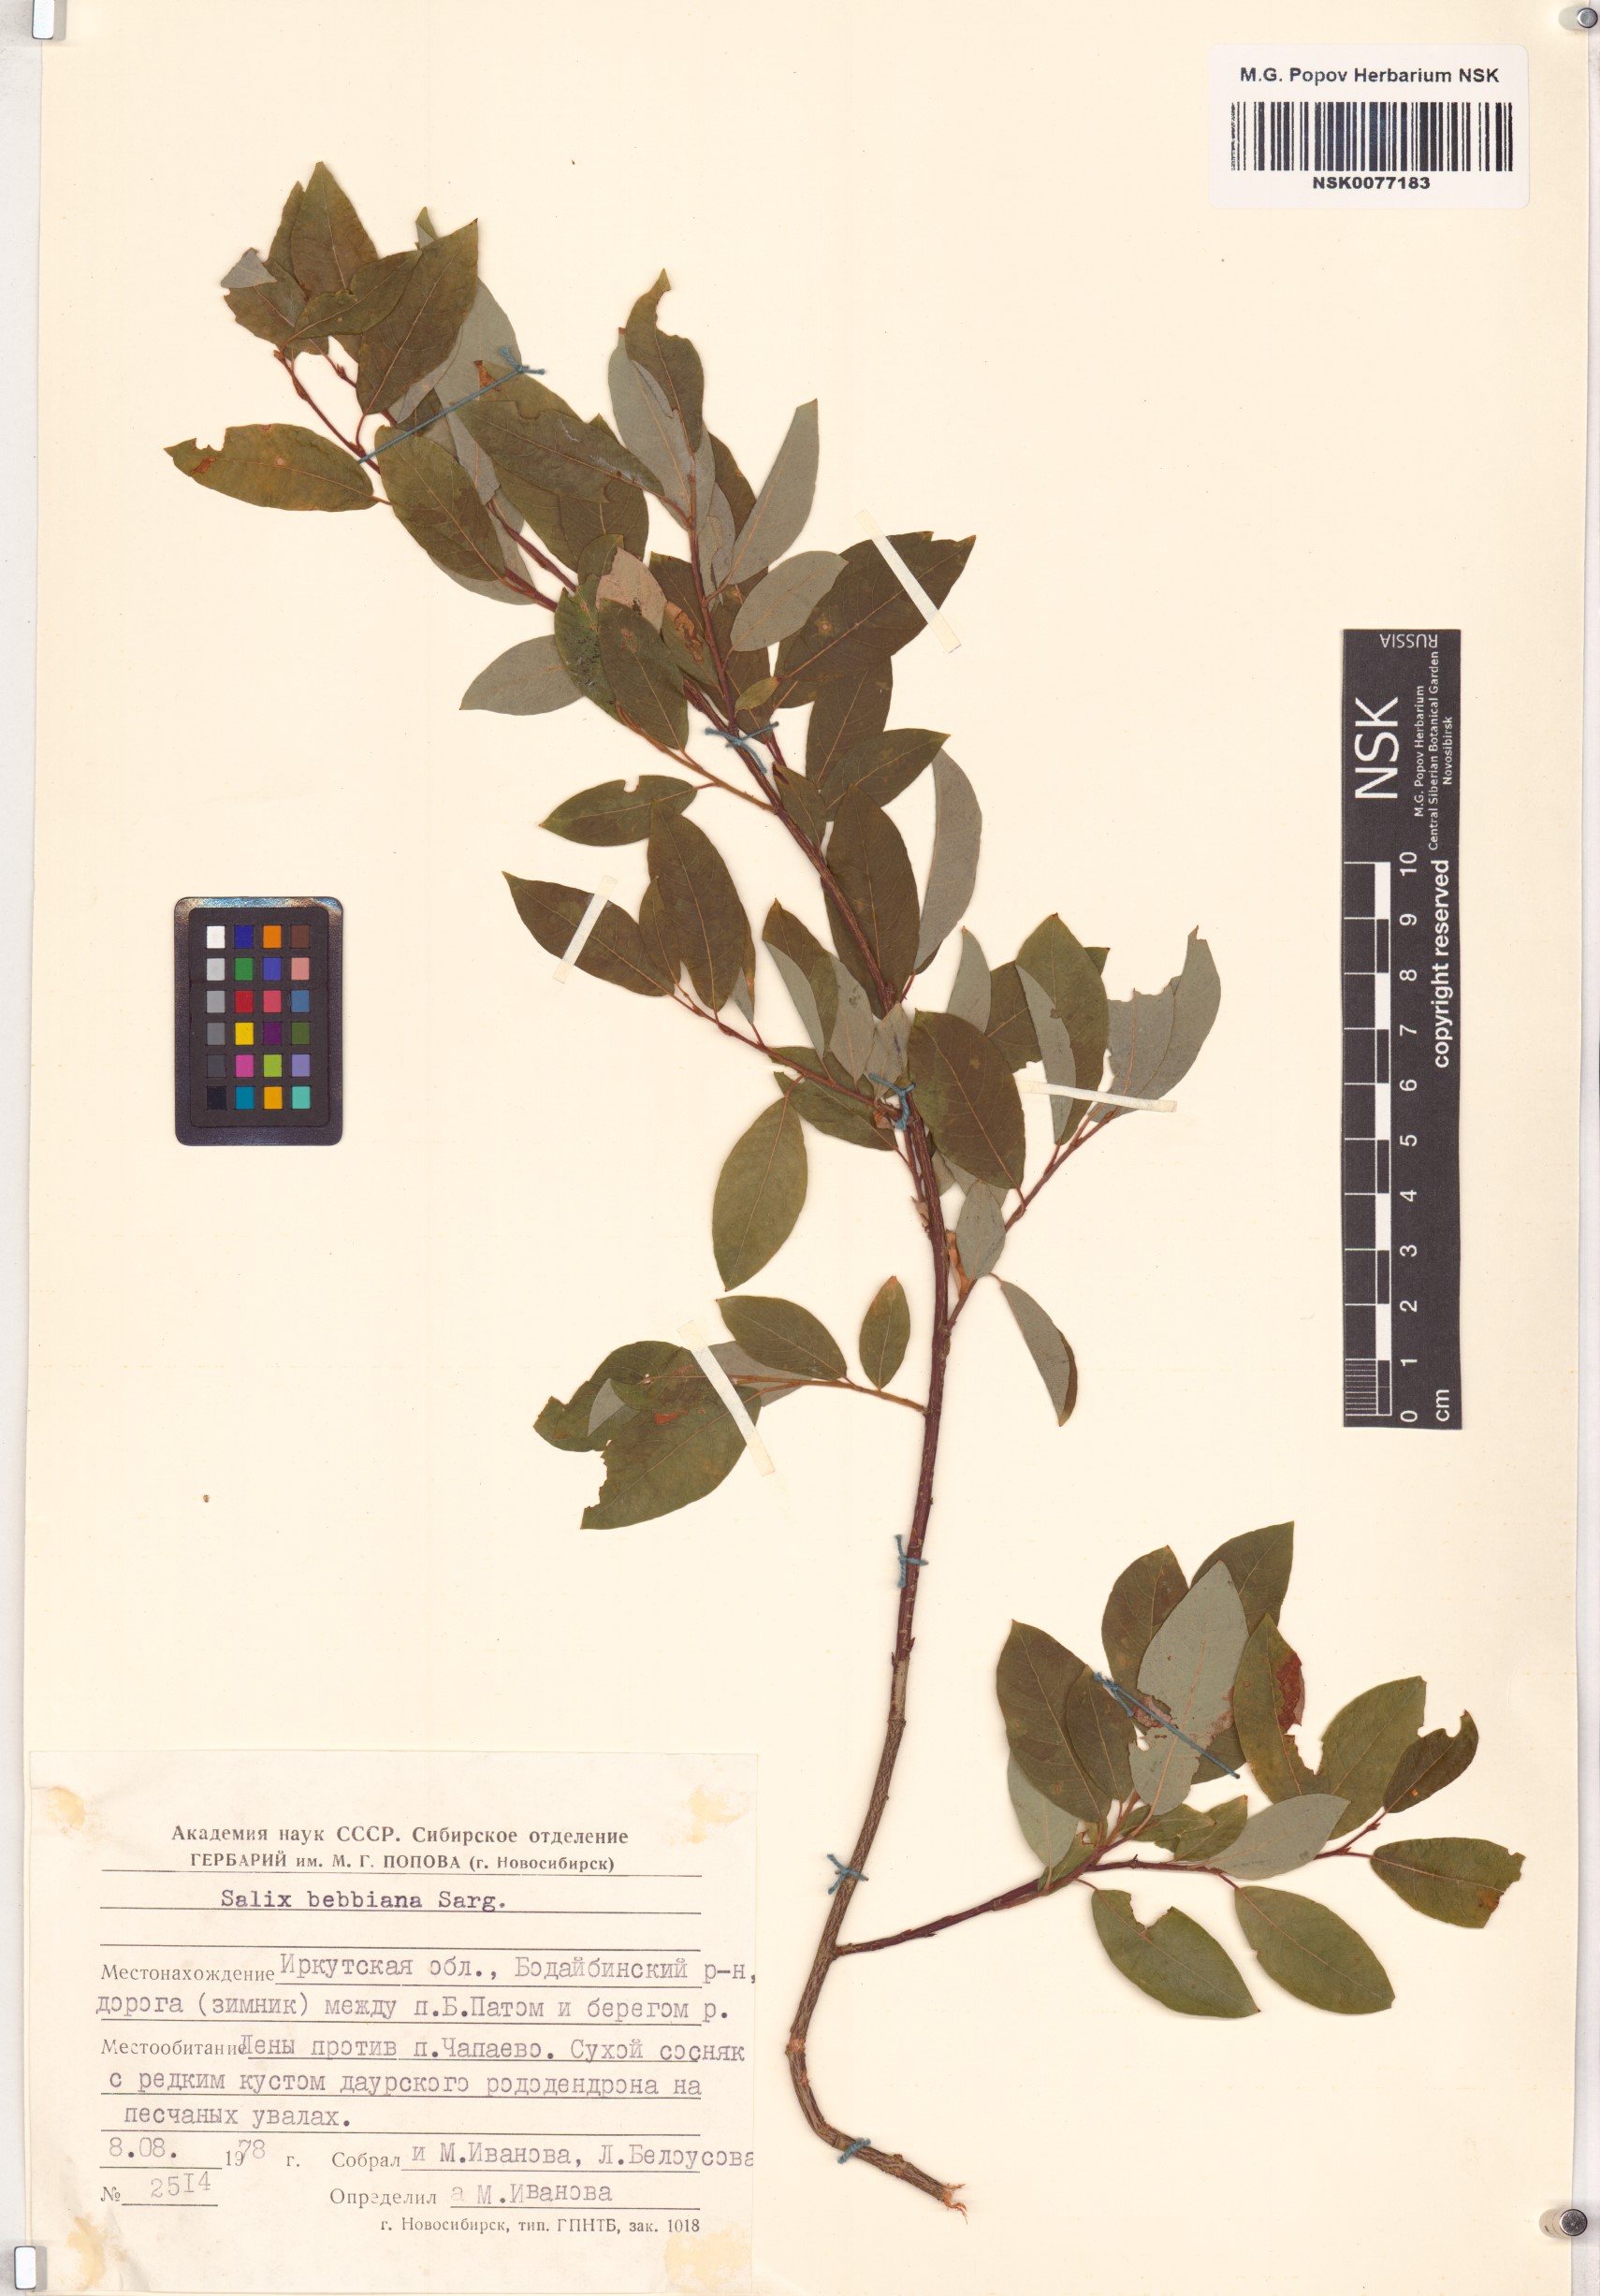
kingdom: Plantae
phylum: Tracheophyta
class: Magnoliopsida
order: Malpighiales
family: Salicaceae
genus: Salix
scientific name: Salix bebbiana
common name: Bebb's willow
